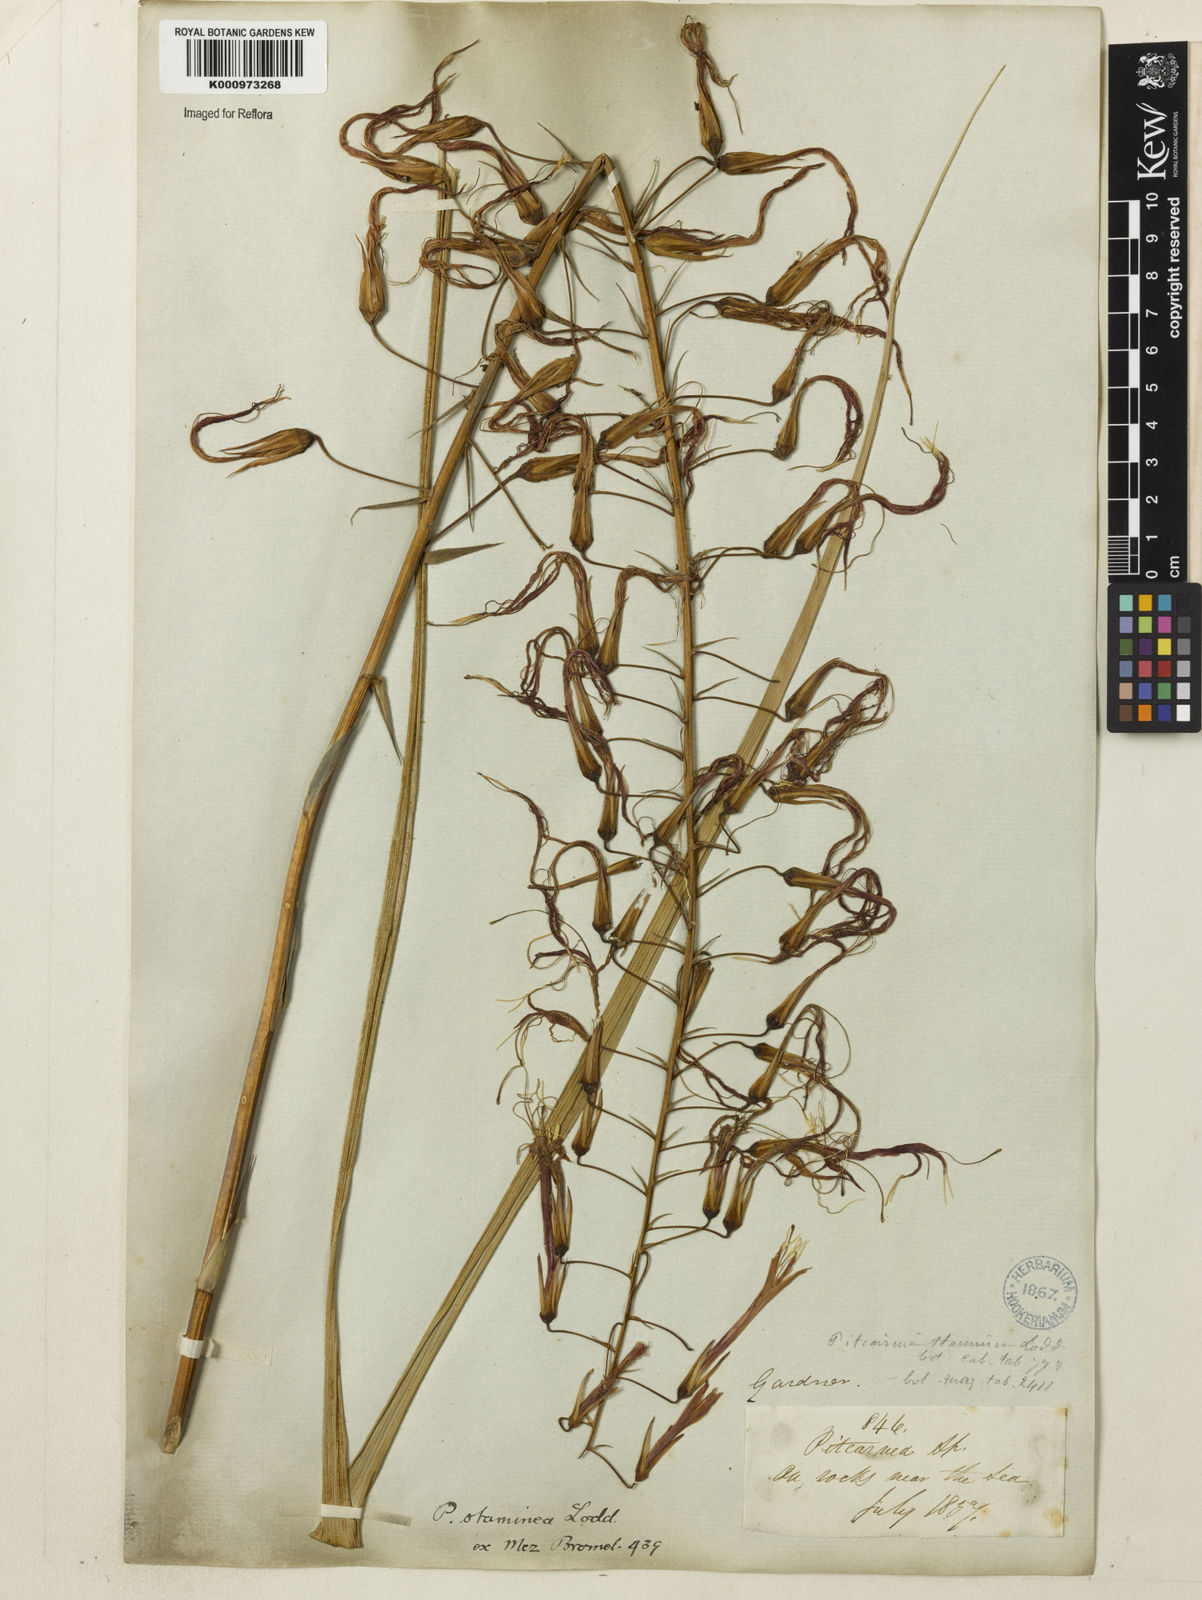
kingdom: Plantae
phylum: Tracheophyta
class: Liliopsida
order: Poales
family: Bromeliaceae
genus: Pitcairnia
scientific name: Pitcairnia staminea
